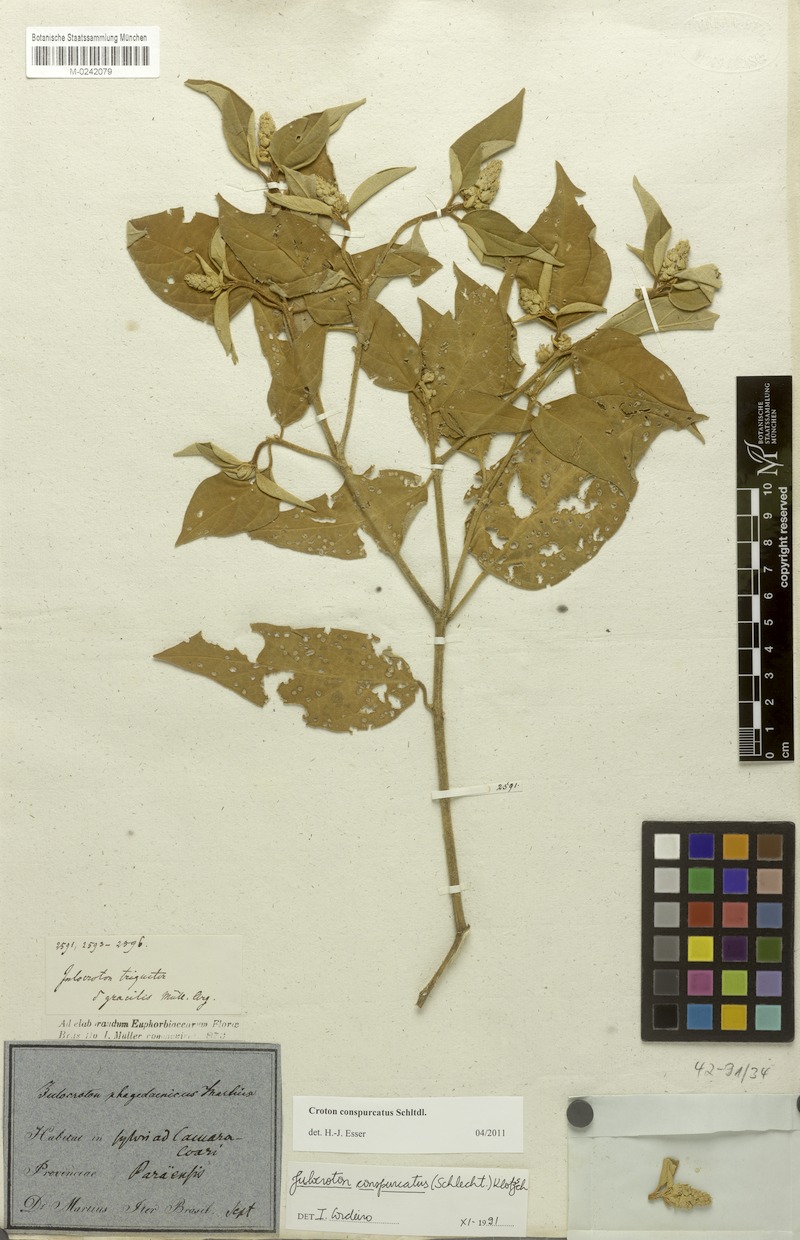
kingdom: Plantae
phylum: Tracheophyta
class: Magnoliopsida
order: Malpighiales
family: Euphorbiaceae
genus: Croton
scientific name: Croton conspurcatus
